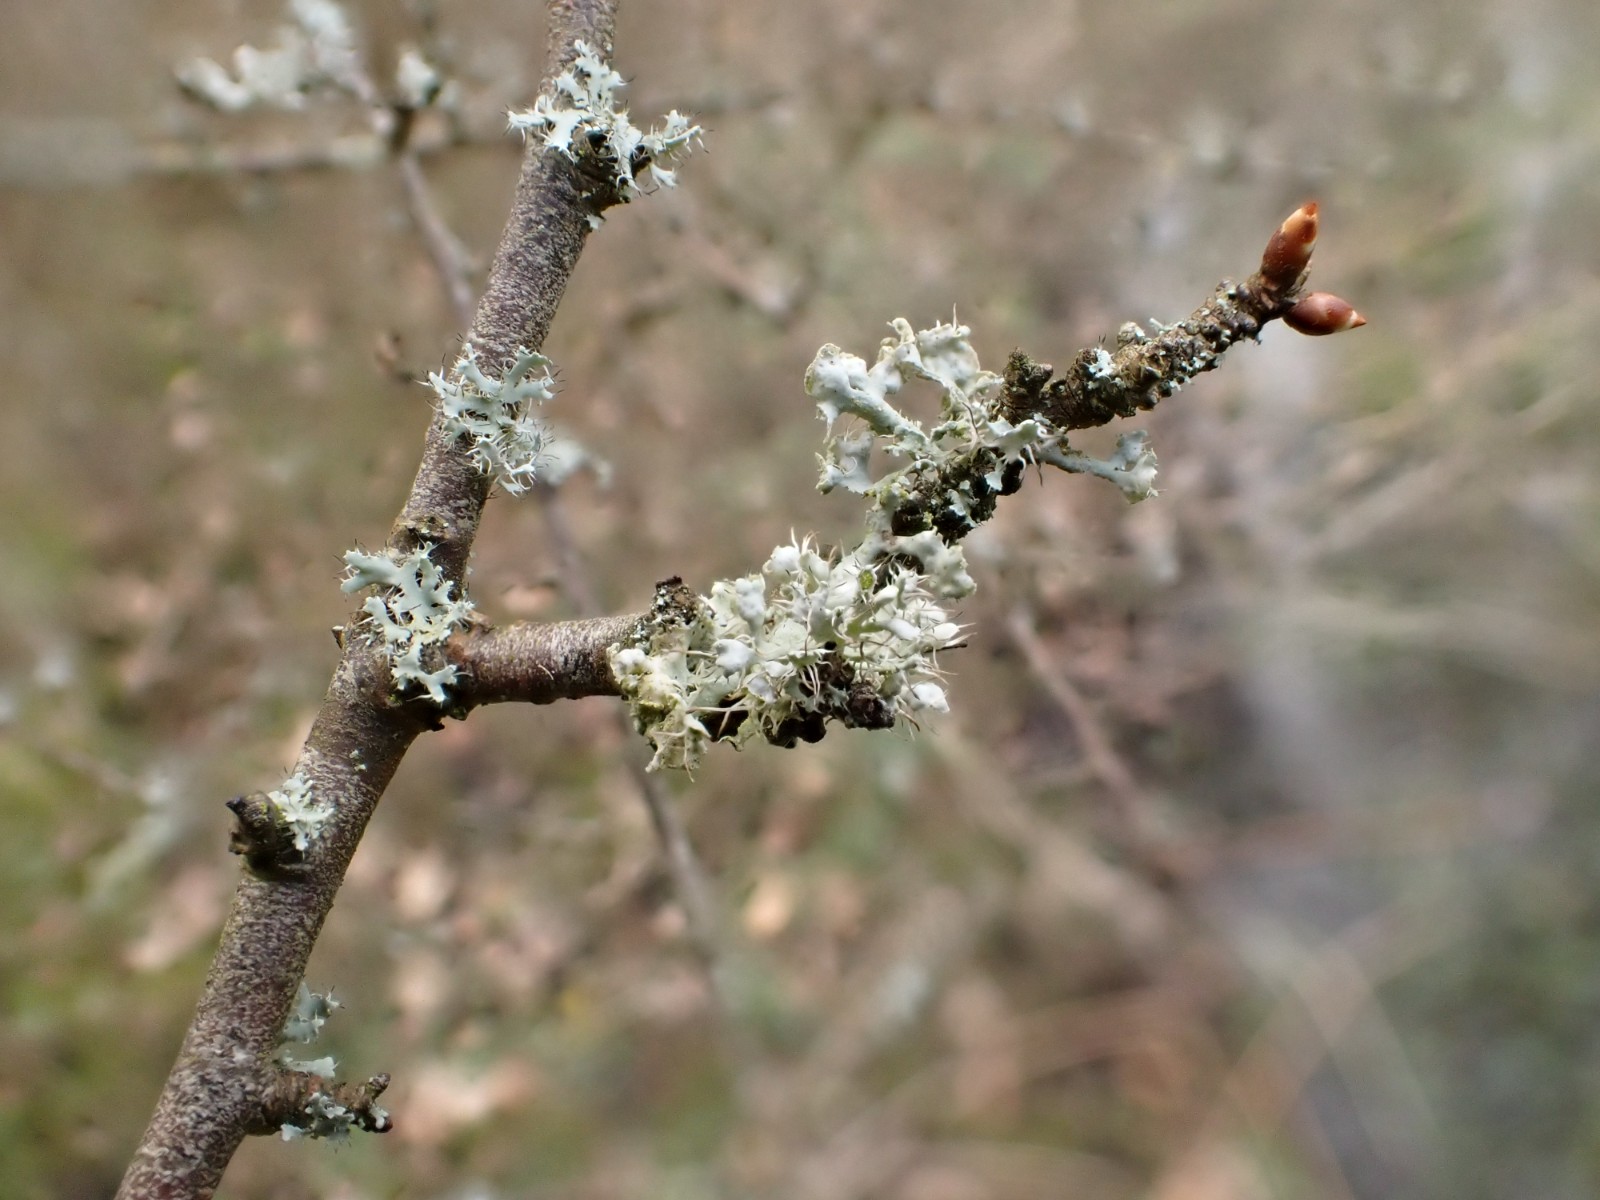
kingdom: Fungi
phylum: Ascomycota
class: Lecanoromycetes
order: Caliciales
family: Physciaceae
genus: Physcia
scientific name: Physcia adscendens
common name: hætte-rosetlav
